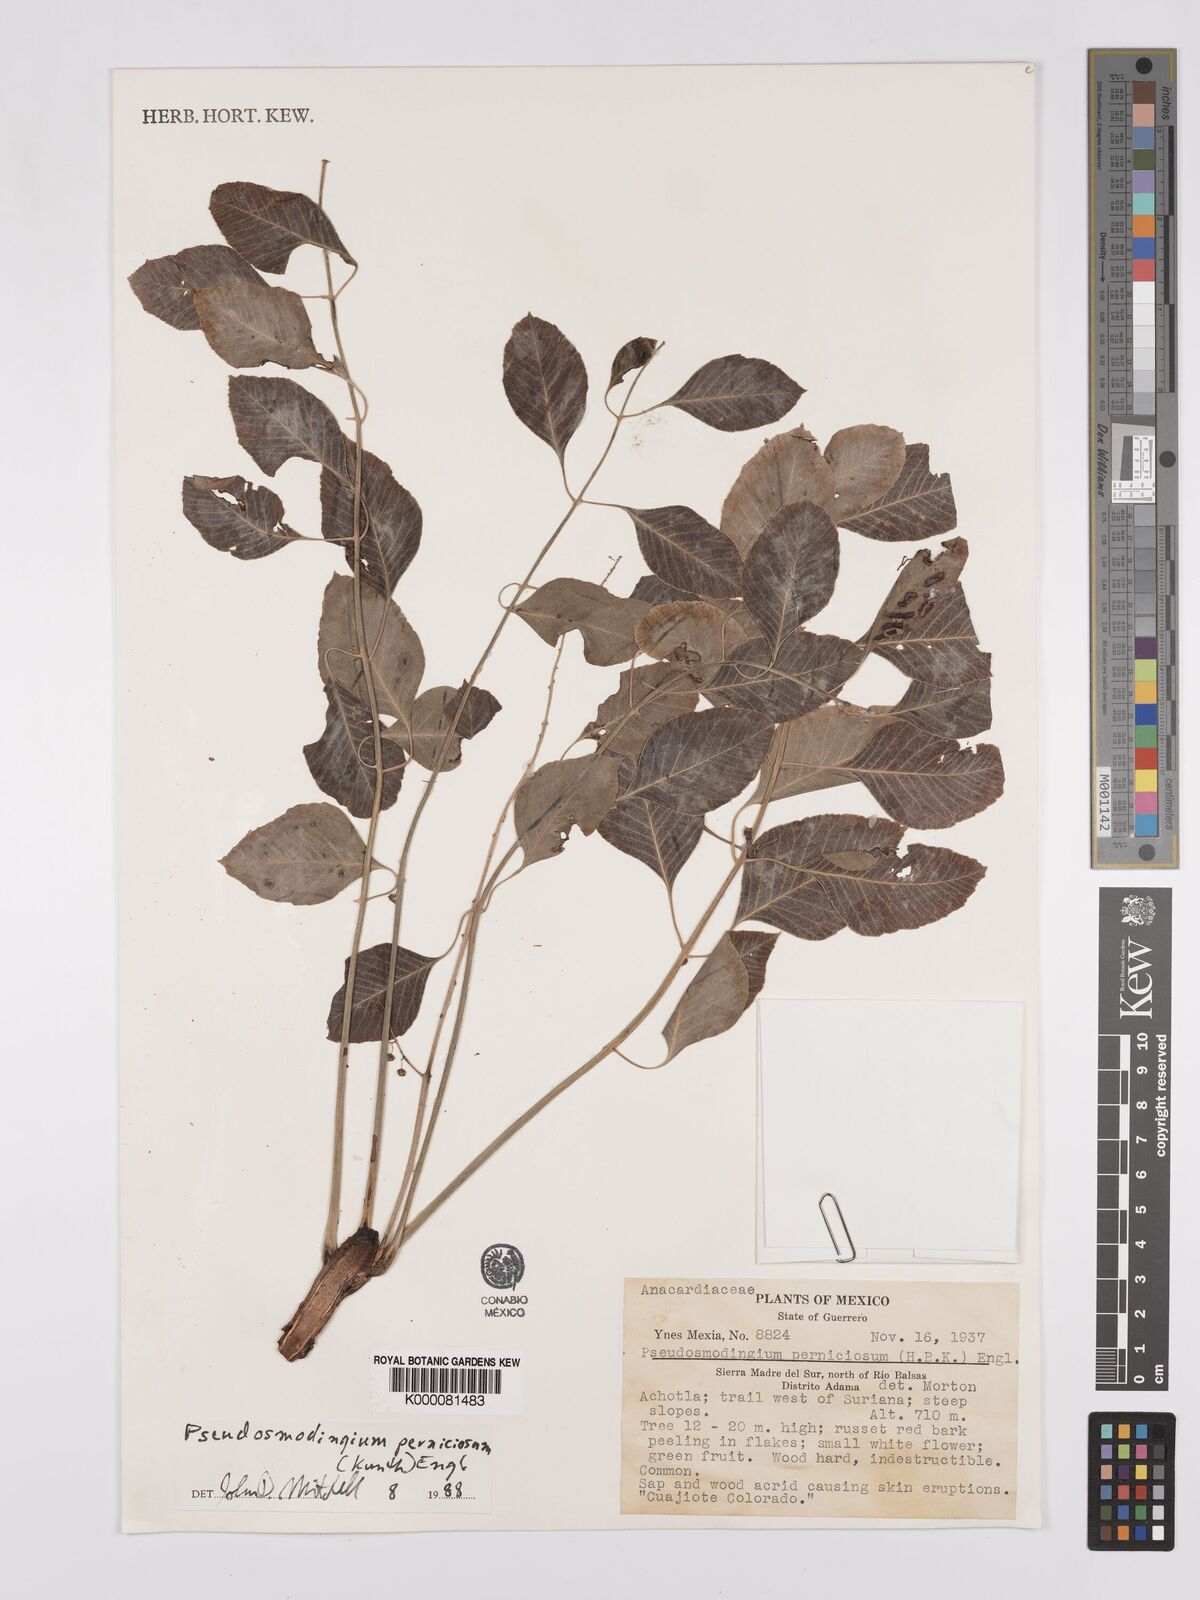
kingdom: Plantae
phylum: Tracheophyta
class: Magnoliopsida
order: Sapindales
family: Anacardiaceae
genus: Pseudosmodingium
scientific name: Pseudosmodingium perniciosum
